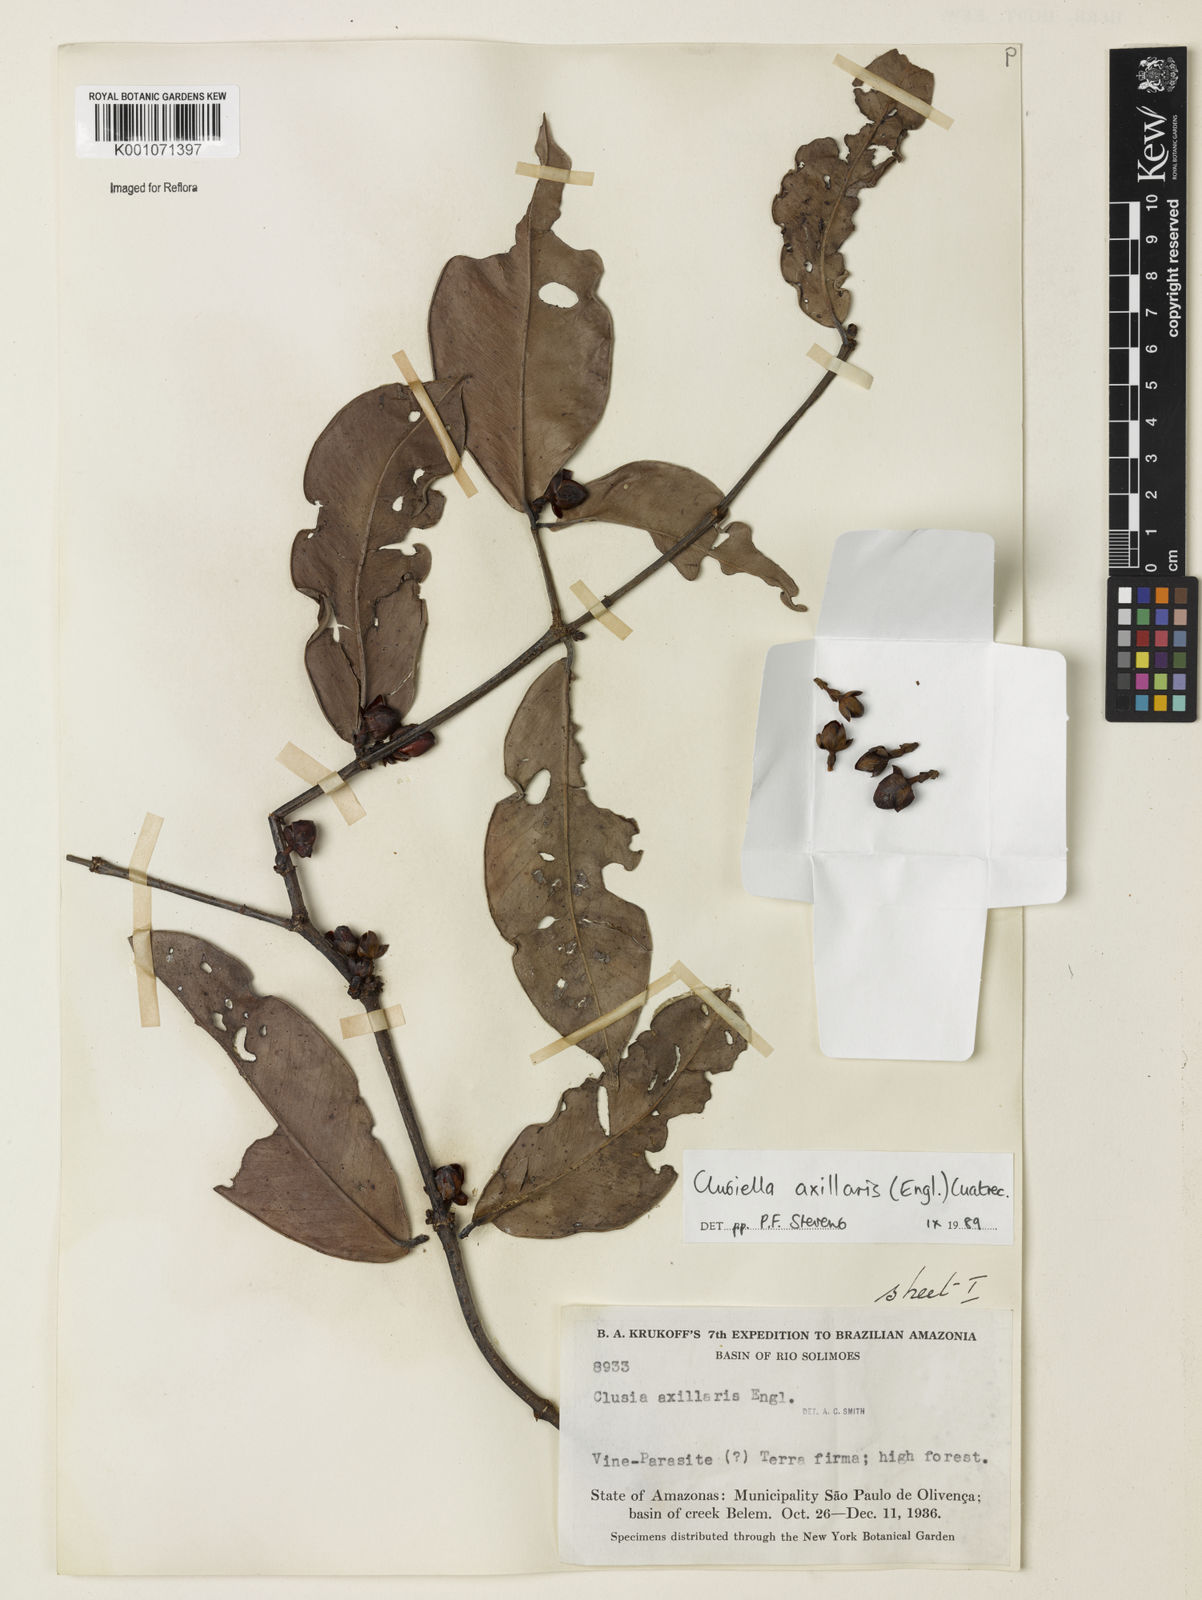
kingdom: Plantae
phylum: Tracheophyta
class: Magnoliopsida
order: Malpighiales
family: Calophyllaceae
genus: Clusiella
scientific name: Clusiella axillaris
